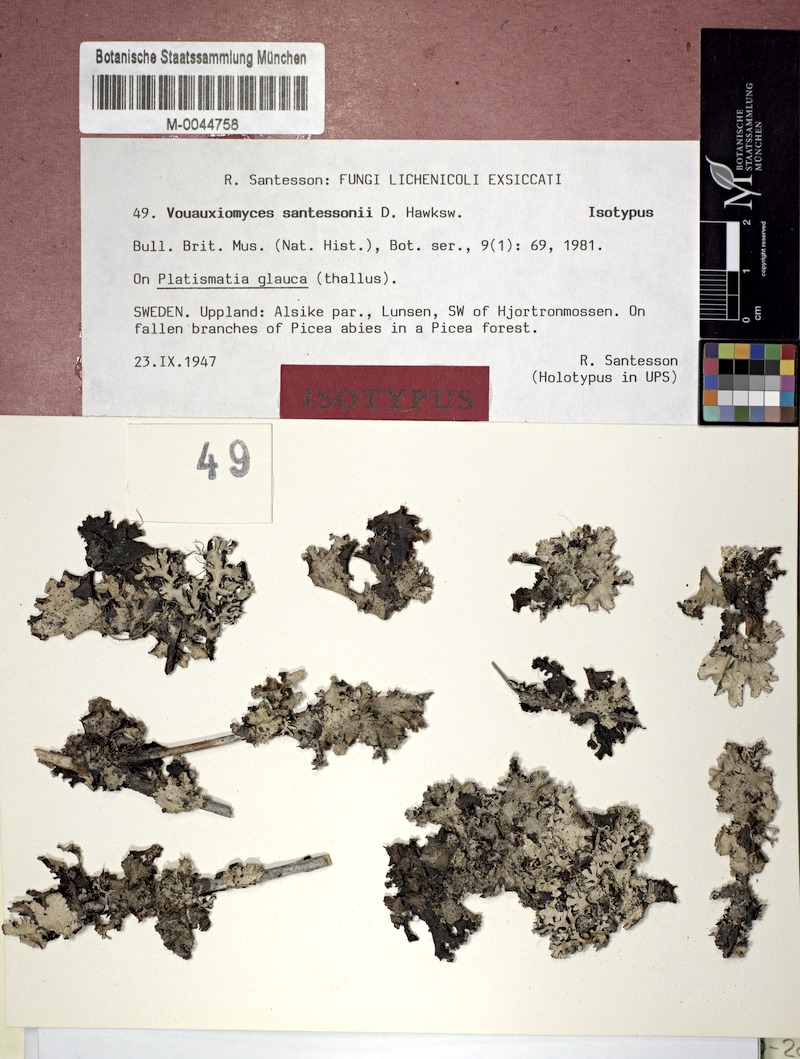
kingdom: Fungi
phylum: Ascomycota
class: Dothideomycetes
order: Abrothallales
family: Abrothallaceae
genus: Abrothallus
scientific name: Abrothallus santessonii
